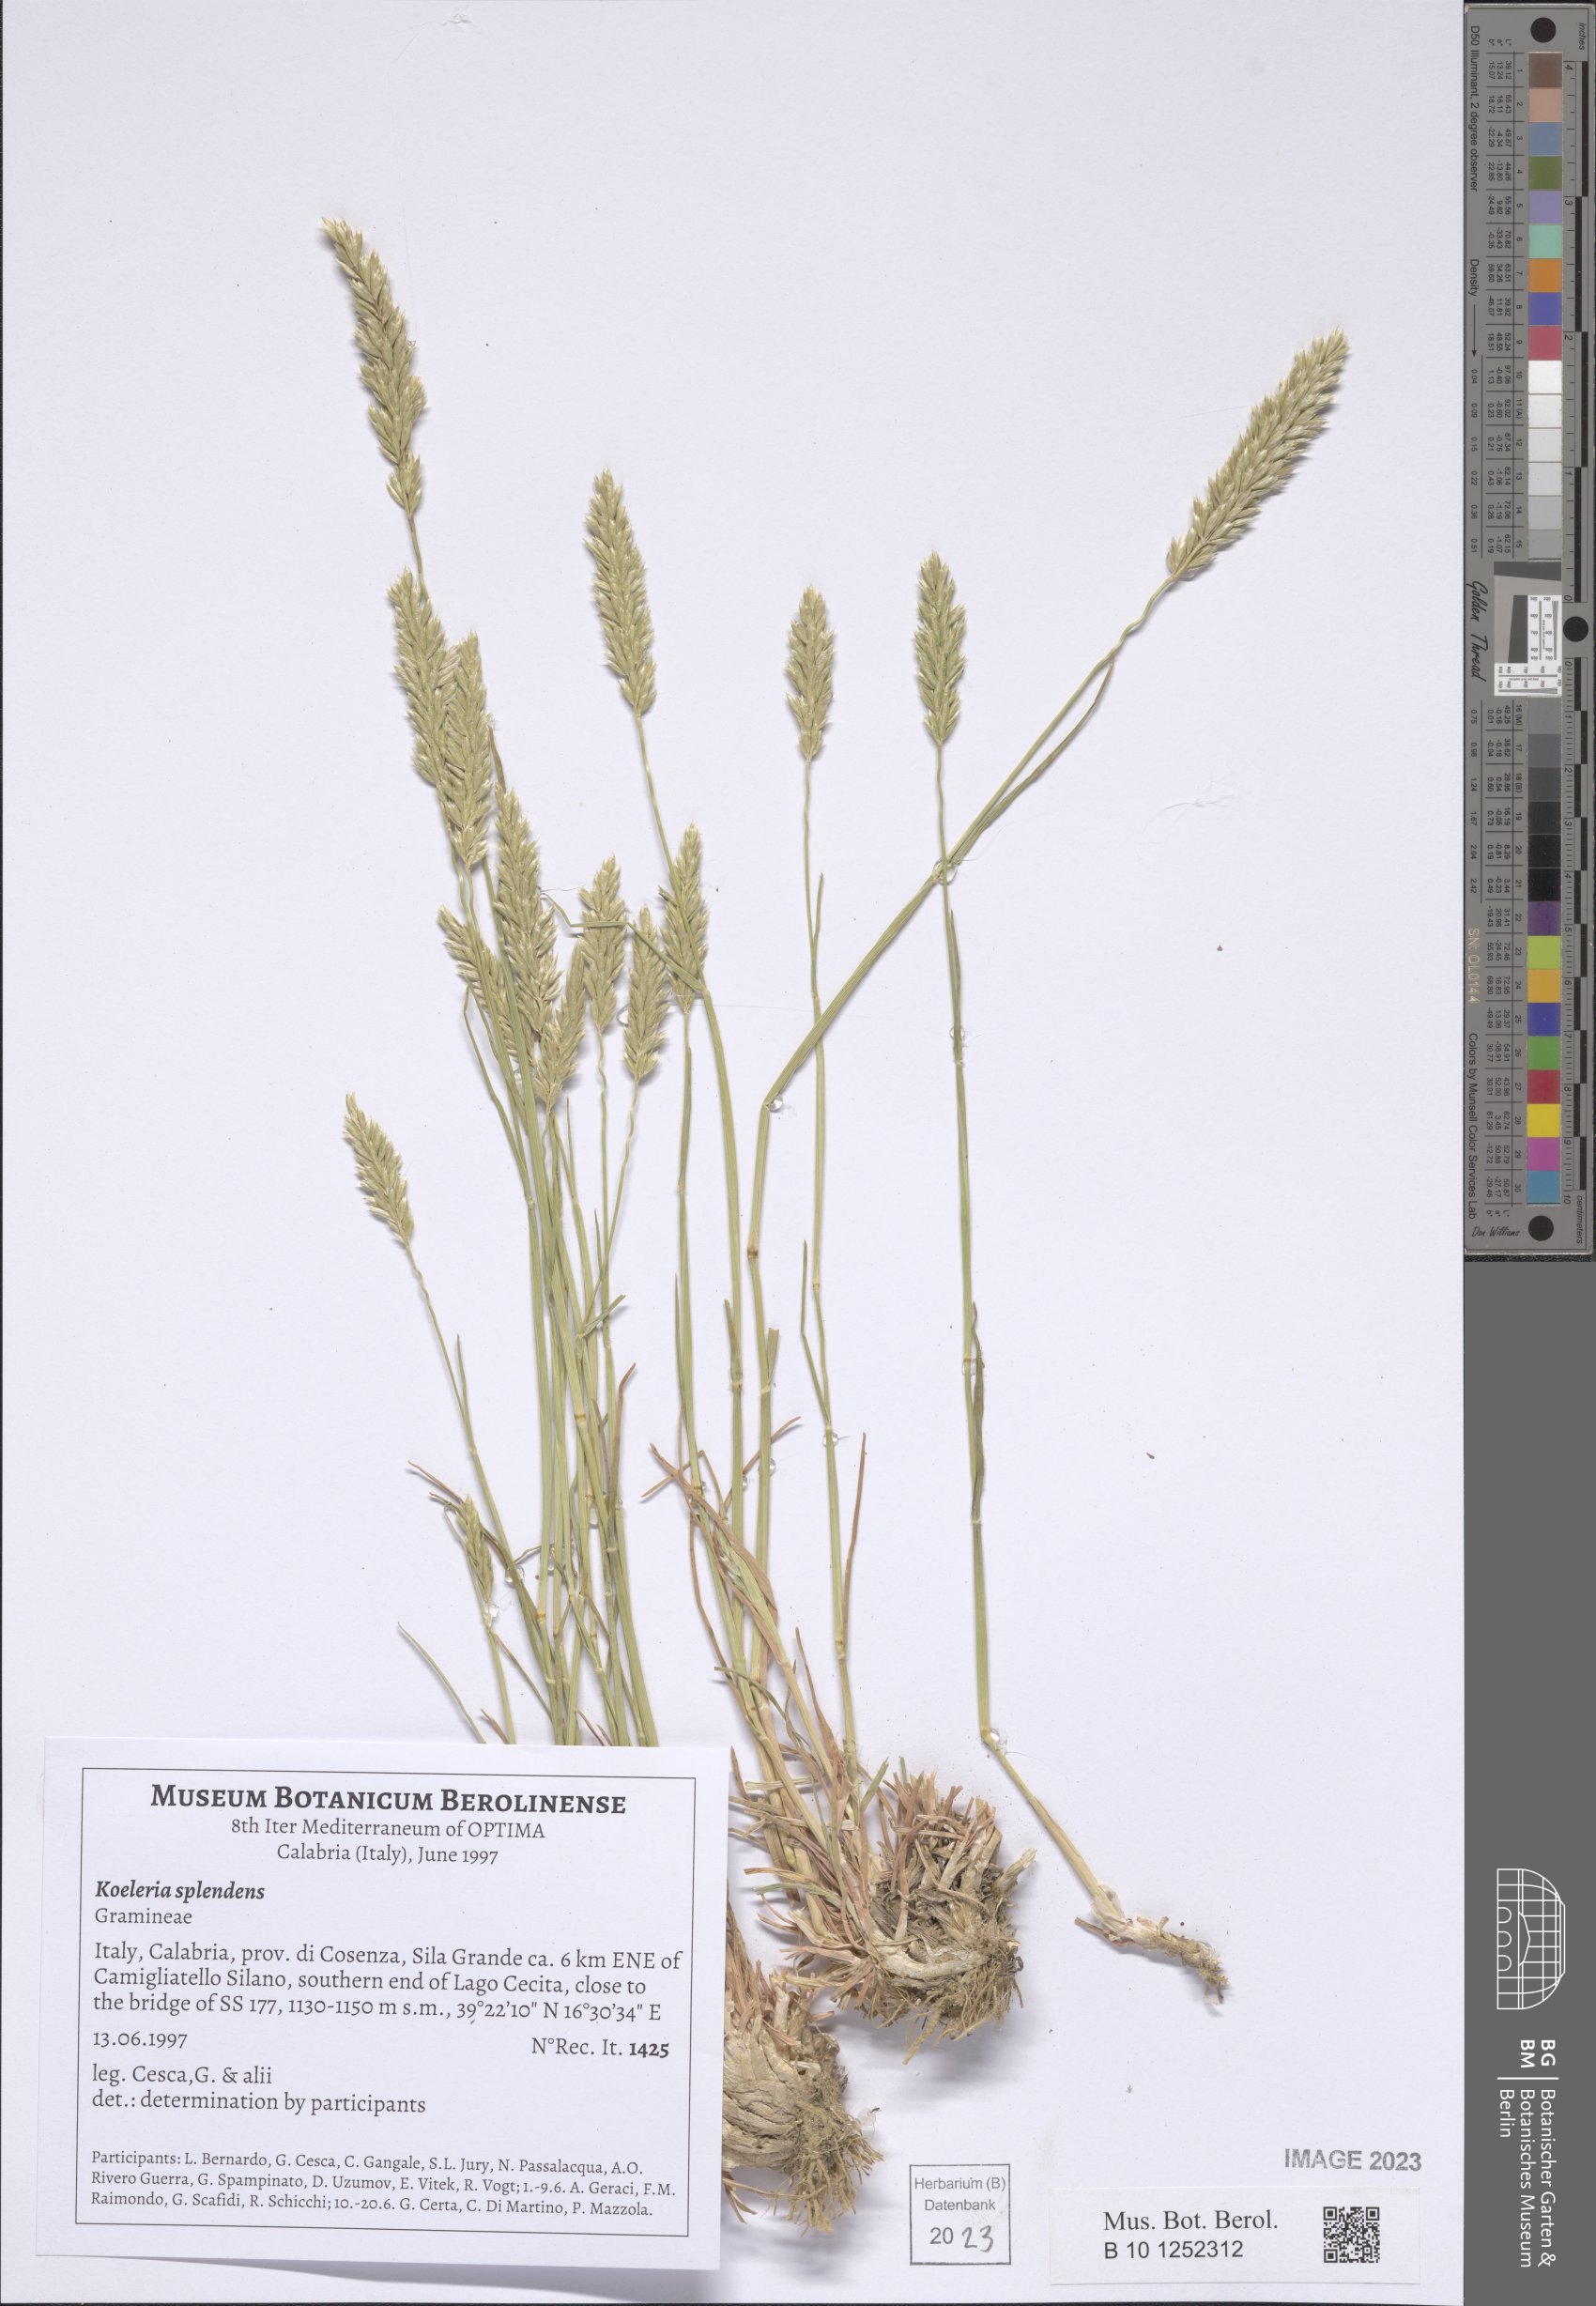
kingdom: Plantae
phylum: Tracheophyta
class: Liliopsida
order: Poales
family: Poaceae
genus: Koeleria
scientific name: Koeleria splendens
